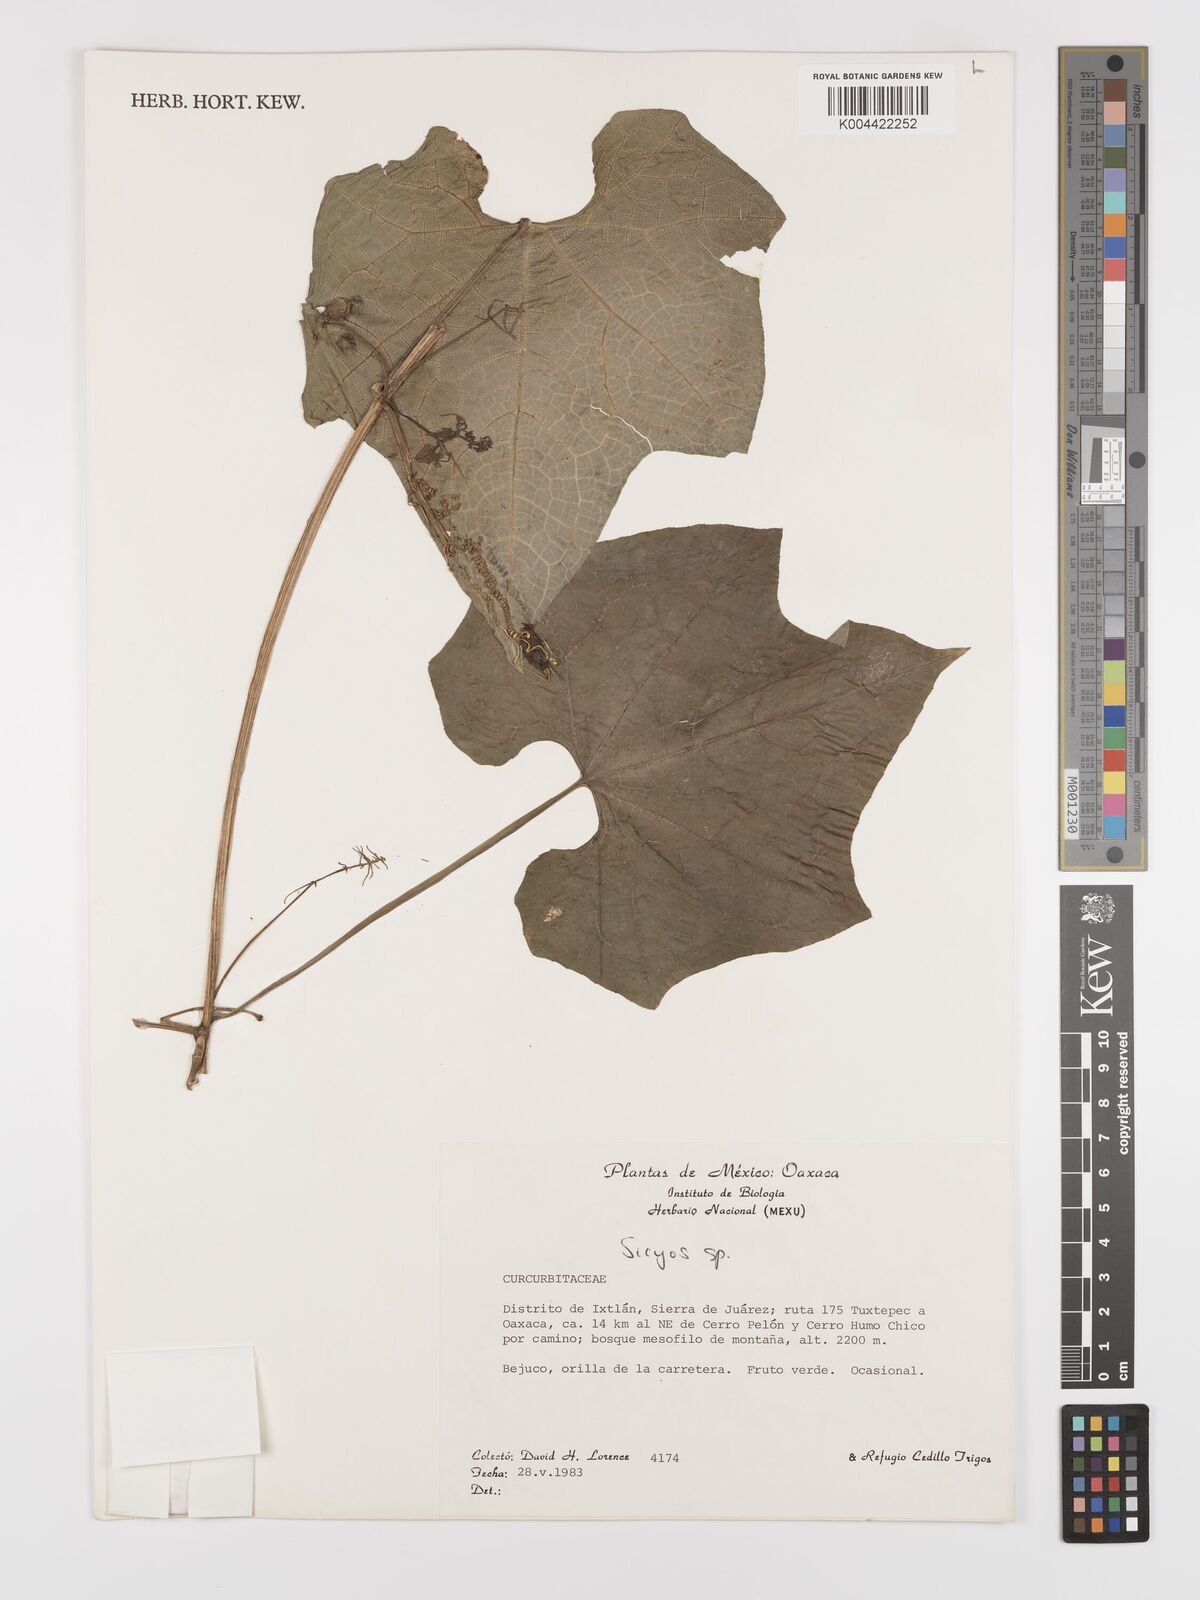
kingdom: Plantae
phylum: Tracheophyta
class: Magnoliopsida
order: Cucurbitales
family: Cucurbitaceae
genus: Parasicyos
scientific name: Parasicyos
